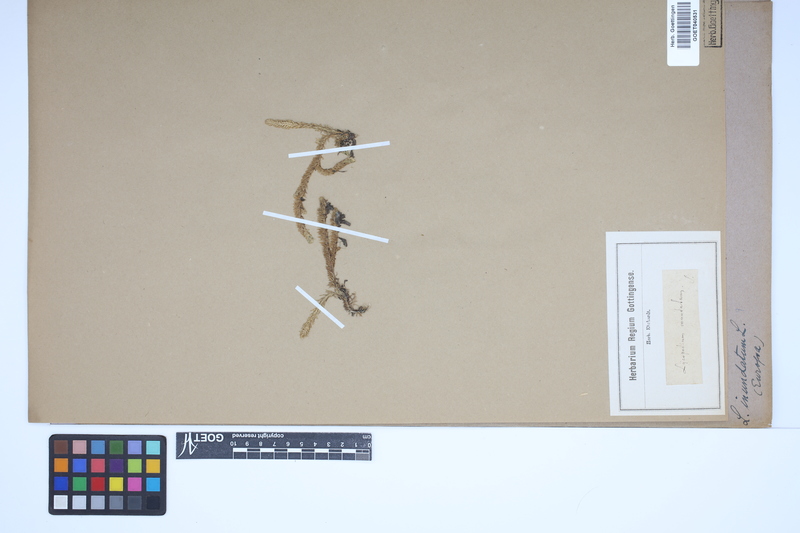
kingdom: Plantae
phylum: Tracheophyta
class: Lycopodiopsida
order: Lycopodiales
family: Lycopodiaceae
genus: Lycopodiella
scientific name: Lycopodiella inundata
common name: Marsh clubmoss
